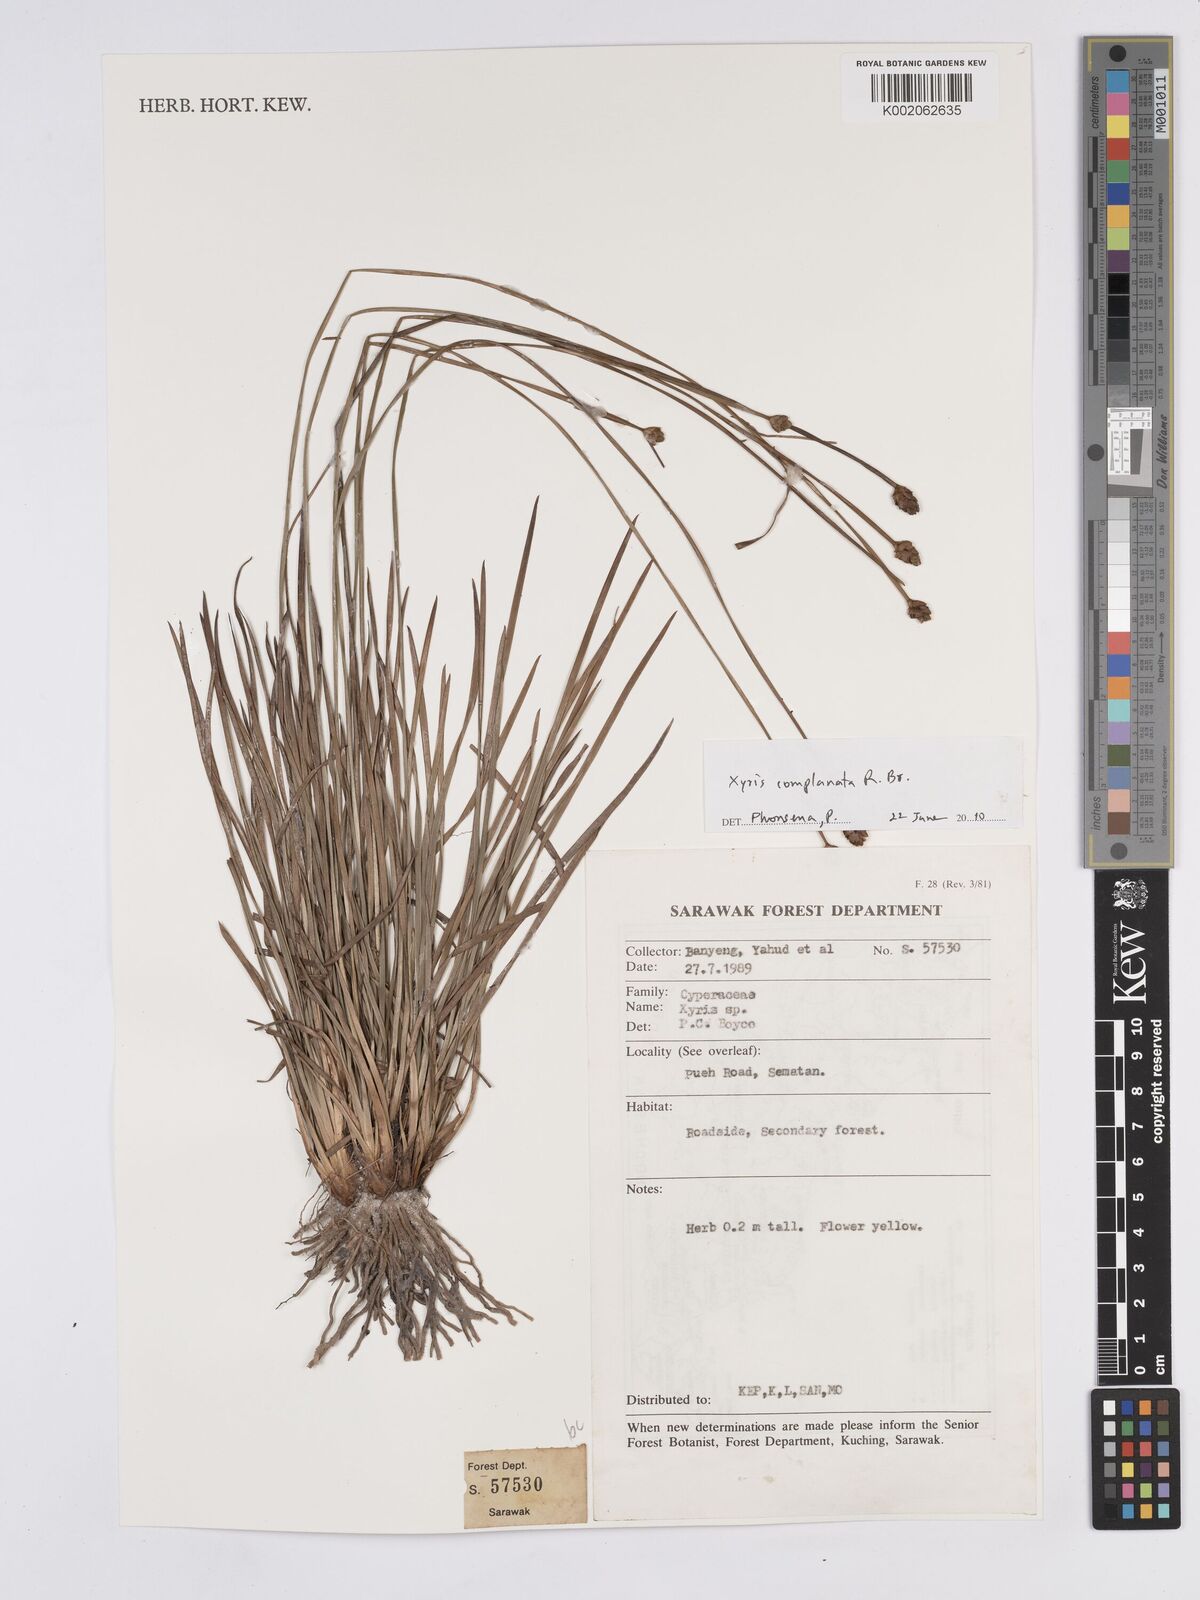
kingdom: Plantae
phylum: Tracheophyta
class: Liliopsida
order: Poales
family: Xyridaceae
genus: Xyris
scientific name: Xyris complanata
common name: Hawai'i yelloweyed grass
